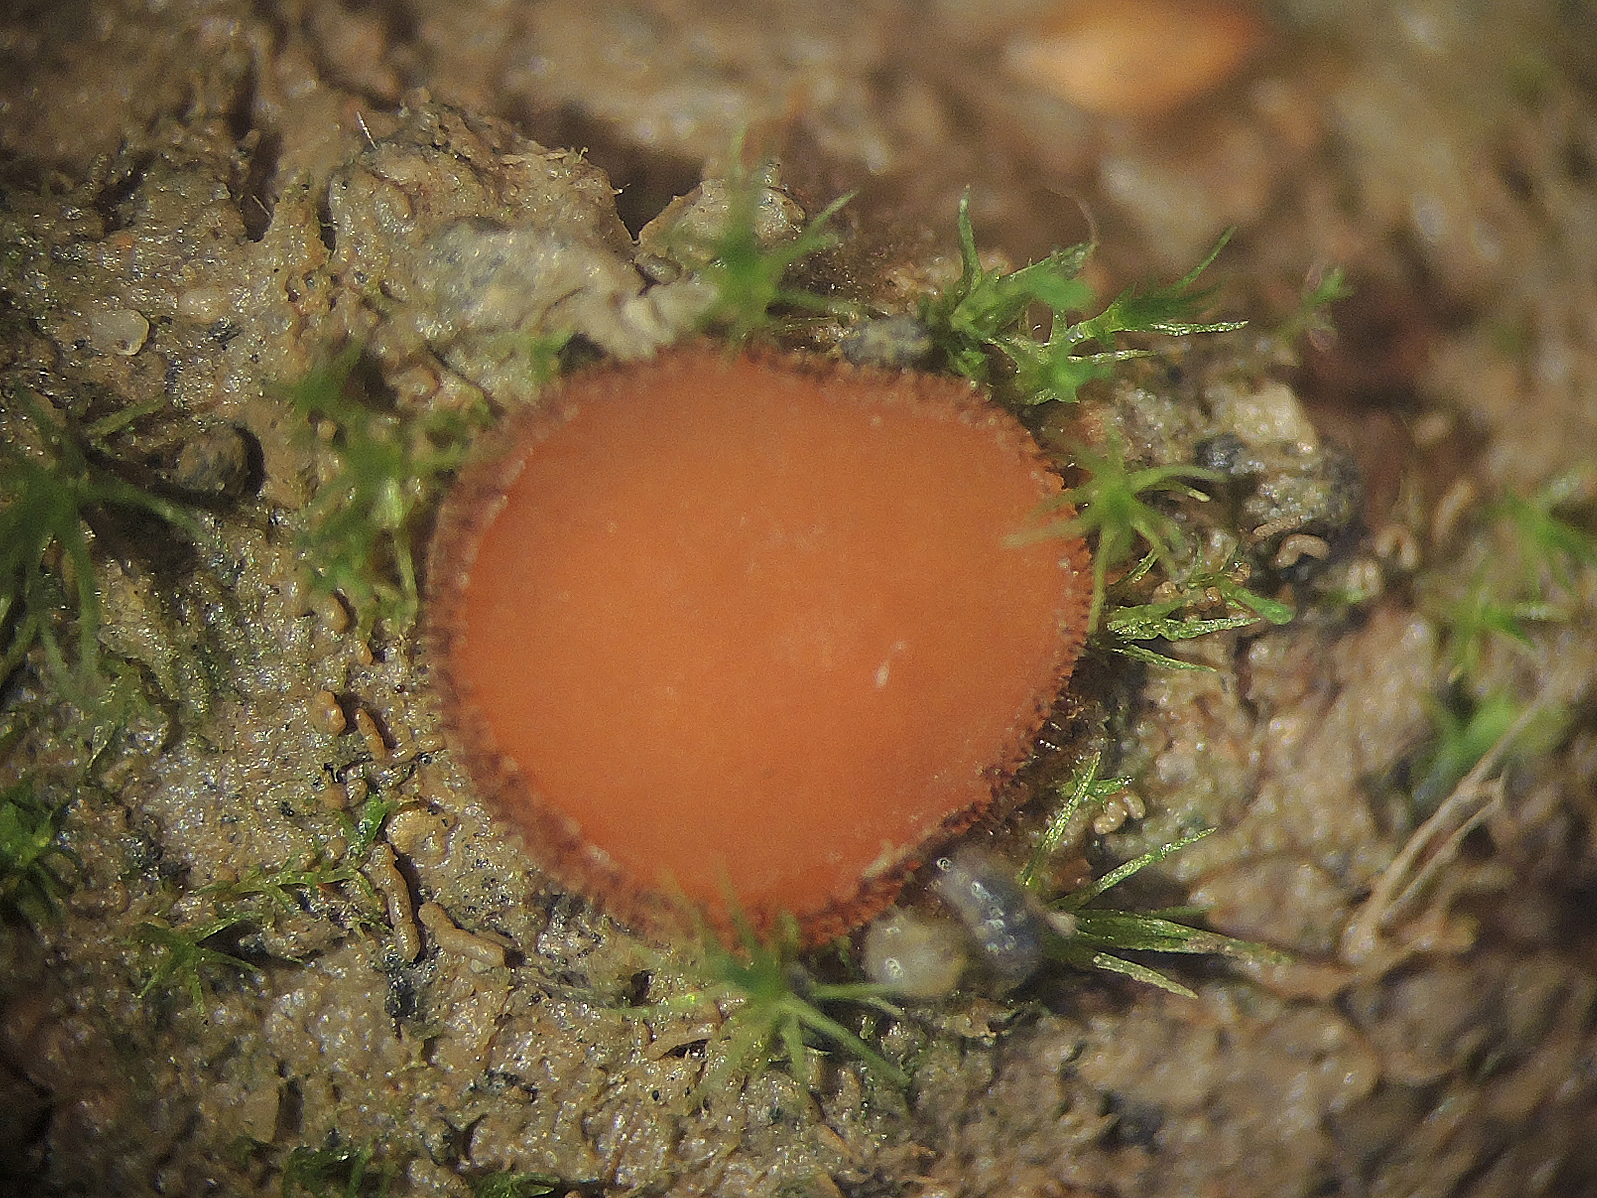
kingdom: Fungi
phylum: Ascomycota
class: Pezizomycetes
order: Pezizales
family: Pyronemataceae
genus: Scutellinia
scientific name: Scutellinia vitreola
